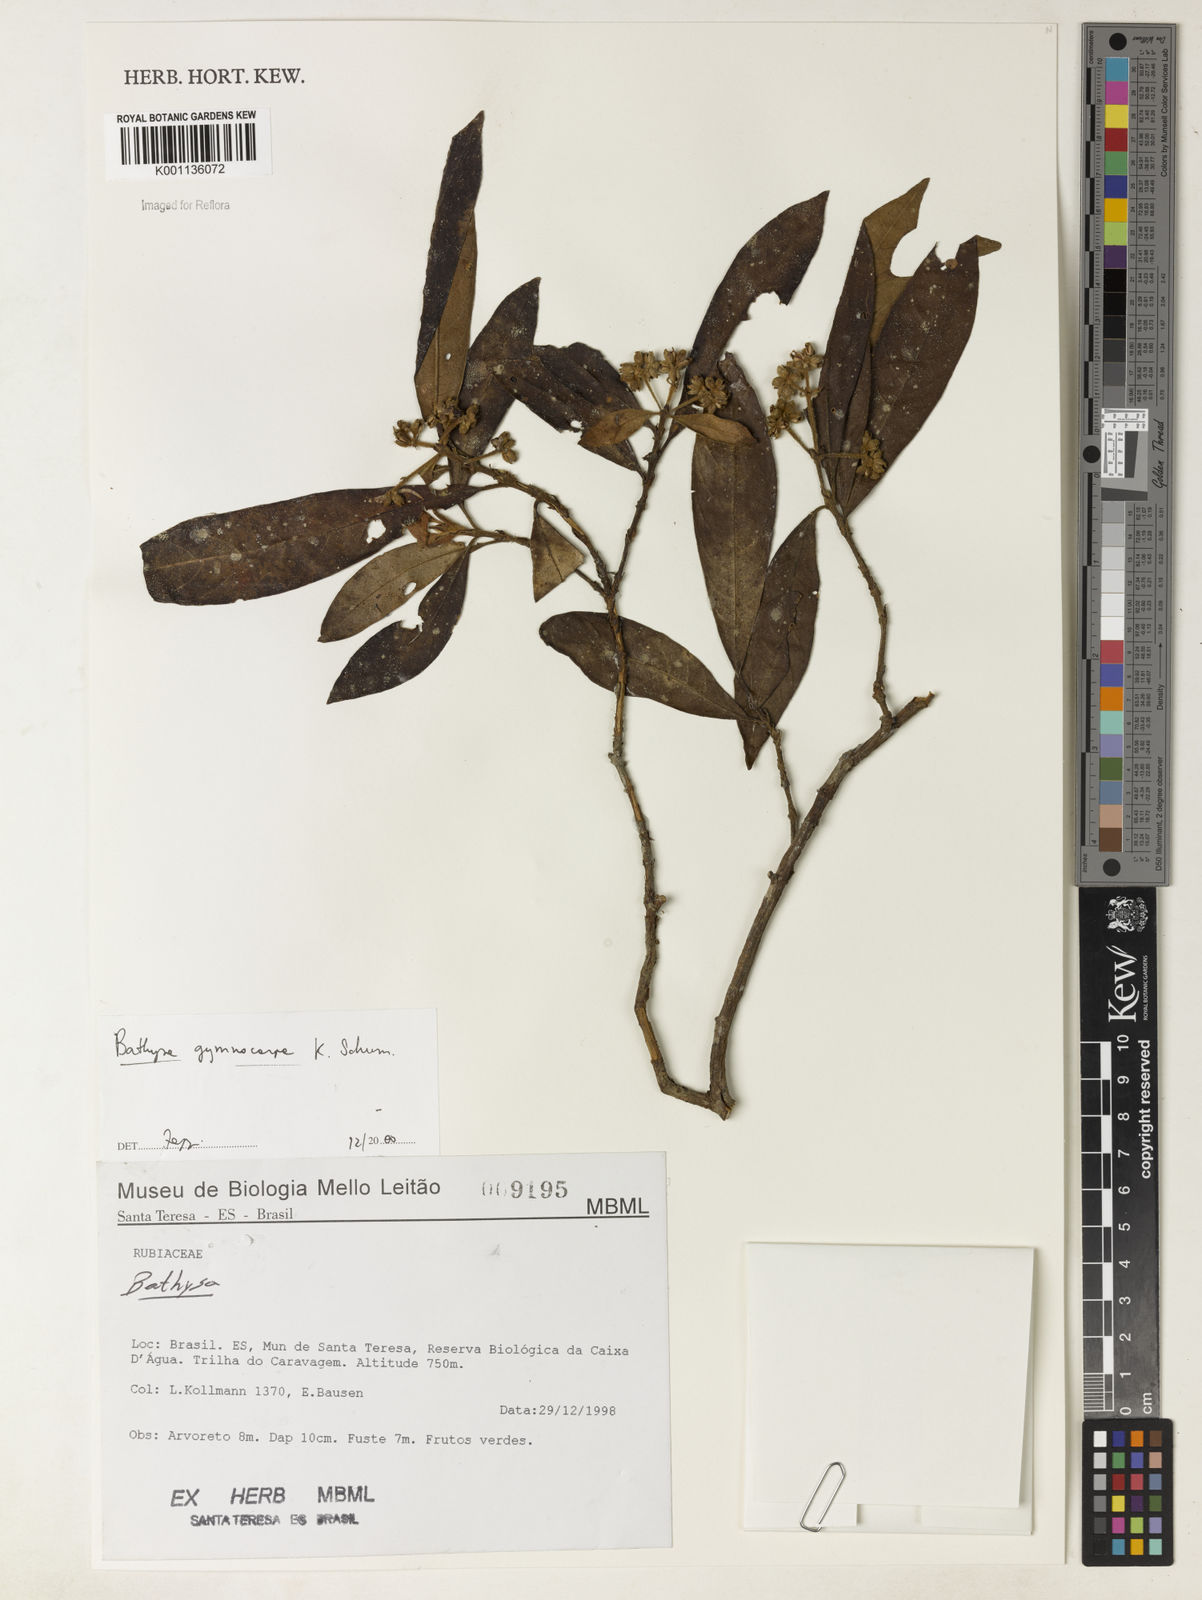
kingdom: Plantae
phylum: Tracheophyta
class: Magnoliopsida
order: Gentianales
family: Rubiaceae
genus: Bathysa
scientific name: Bathysa gymnocarpa
